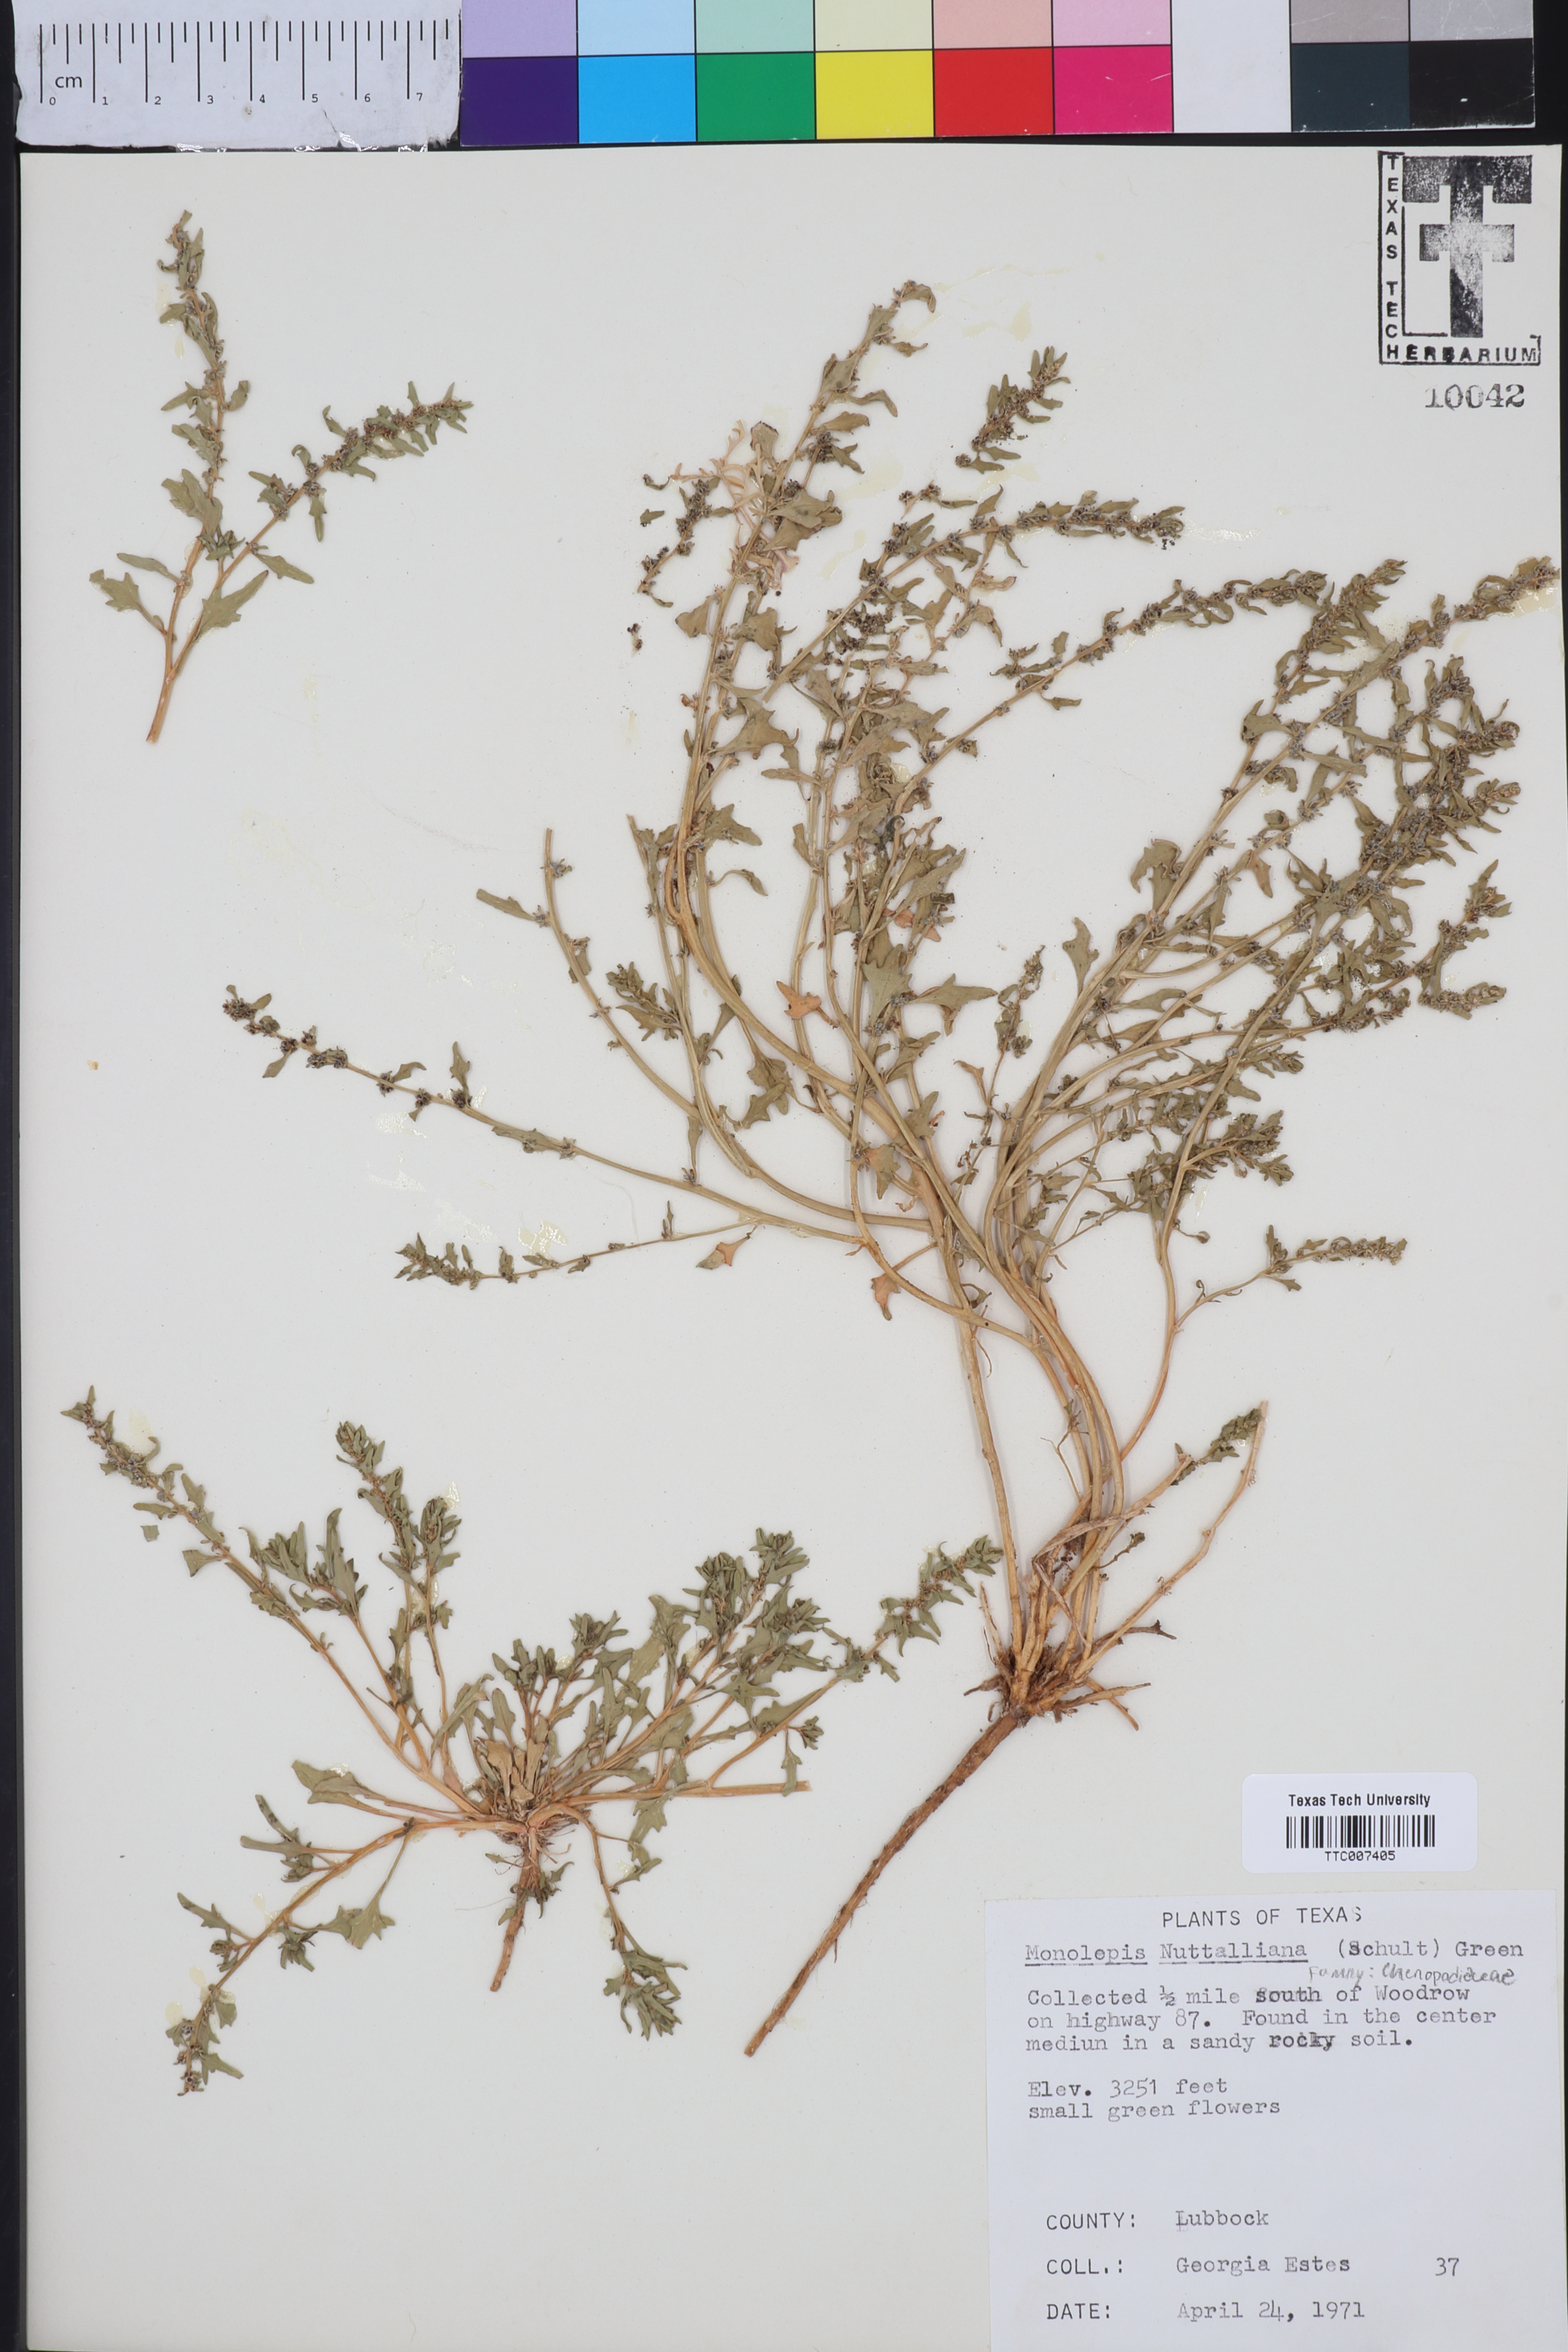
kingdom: Plantae
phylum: Tracheophyta
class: Magnoliopsida
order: Caryophyllales
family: Amaranthaceae
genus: Blitum
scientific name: Blitum nuttallianum
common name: Poverty-weed
